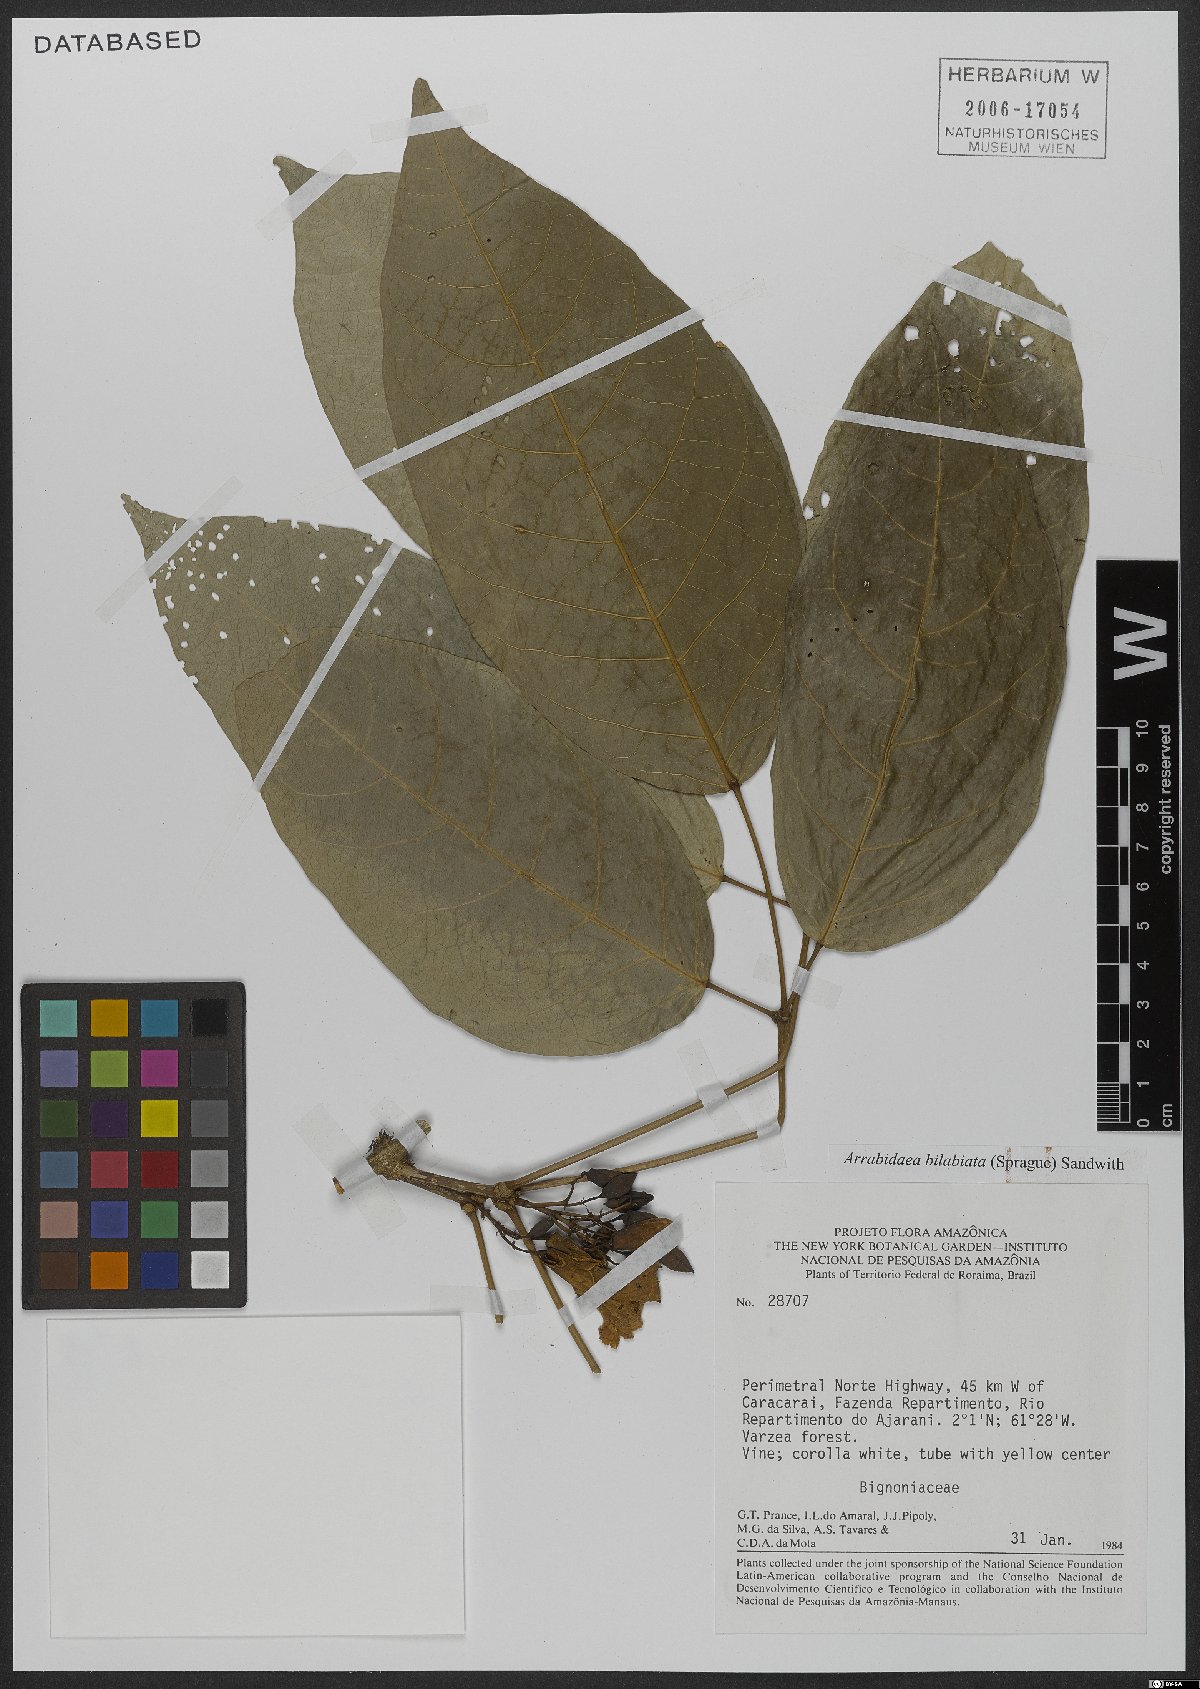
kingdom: Plantae
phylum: Tracheophyta
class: Magnoliopsida
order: Lamiales
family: Bignoniaceae
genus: Tanaecium
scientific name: Tanaecium bilabiatum
